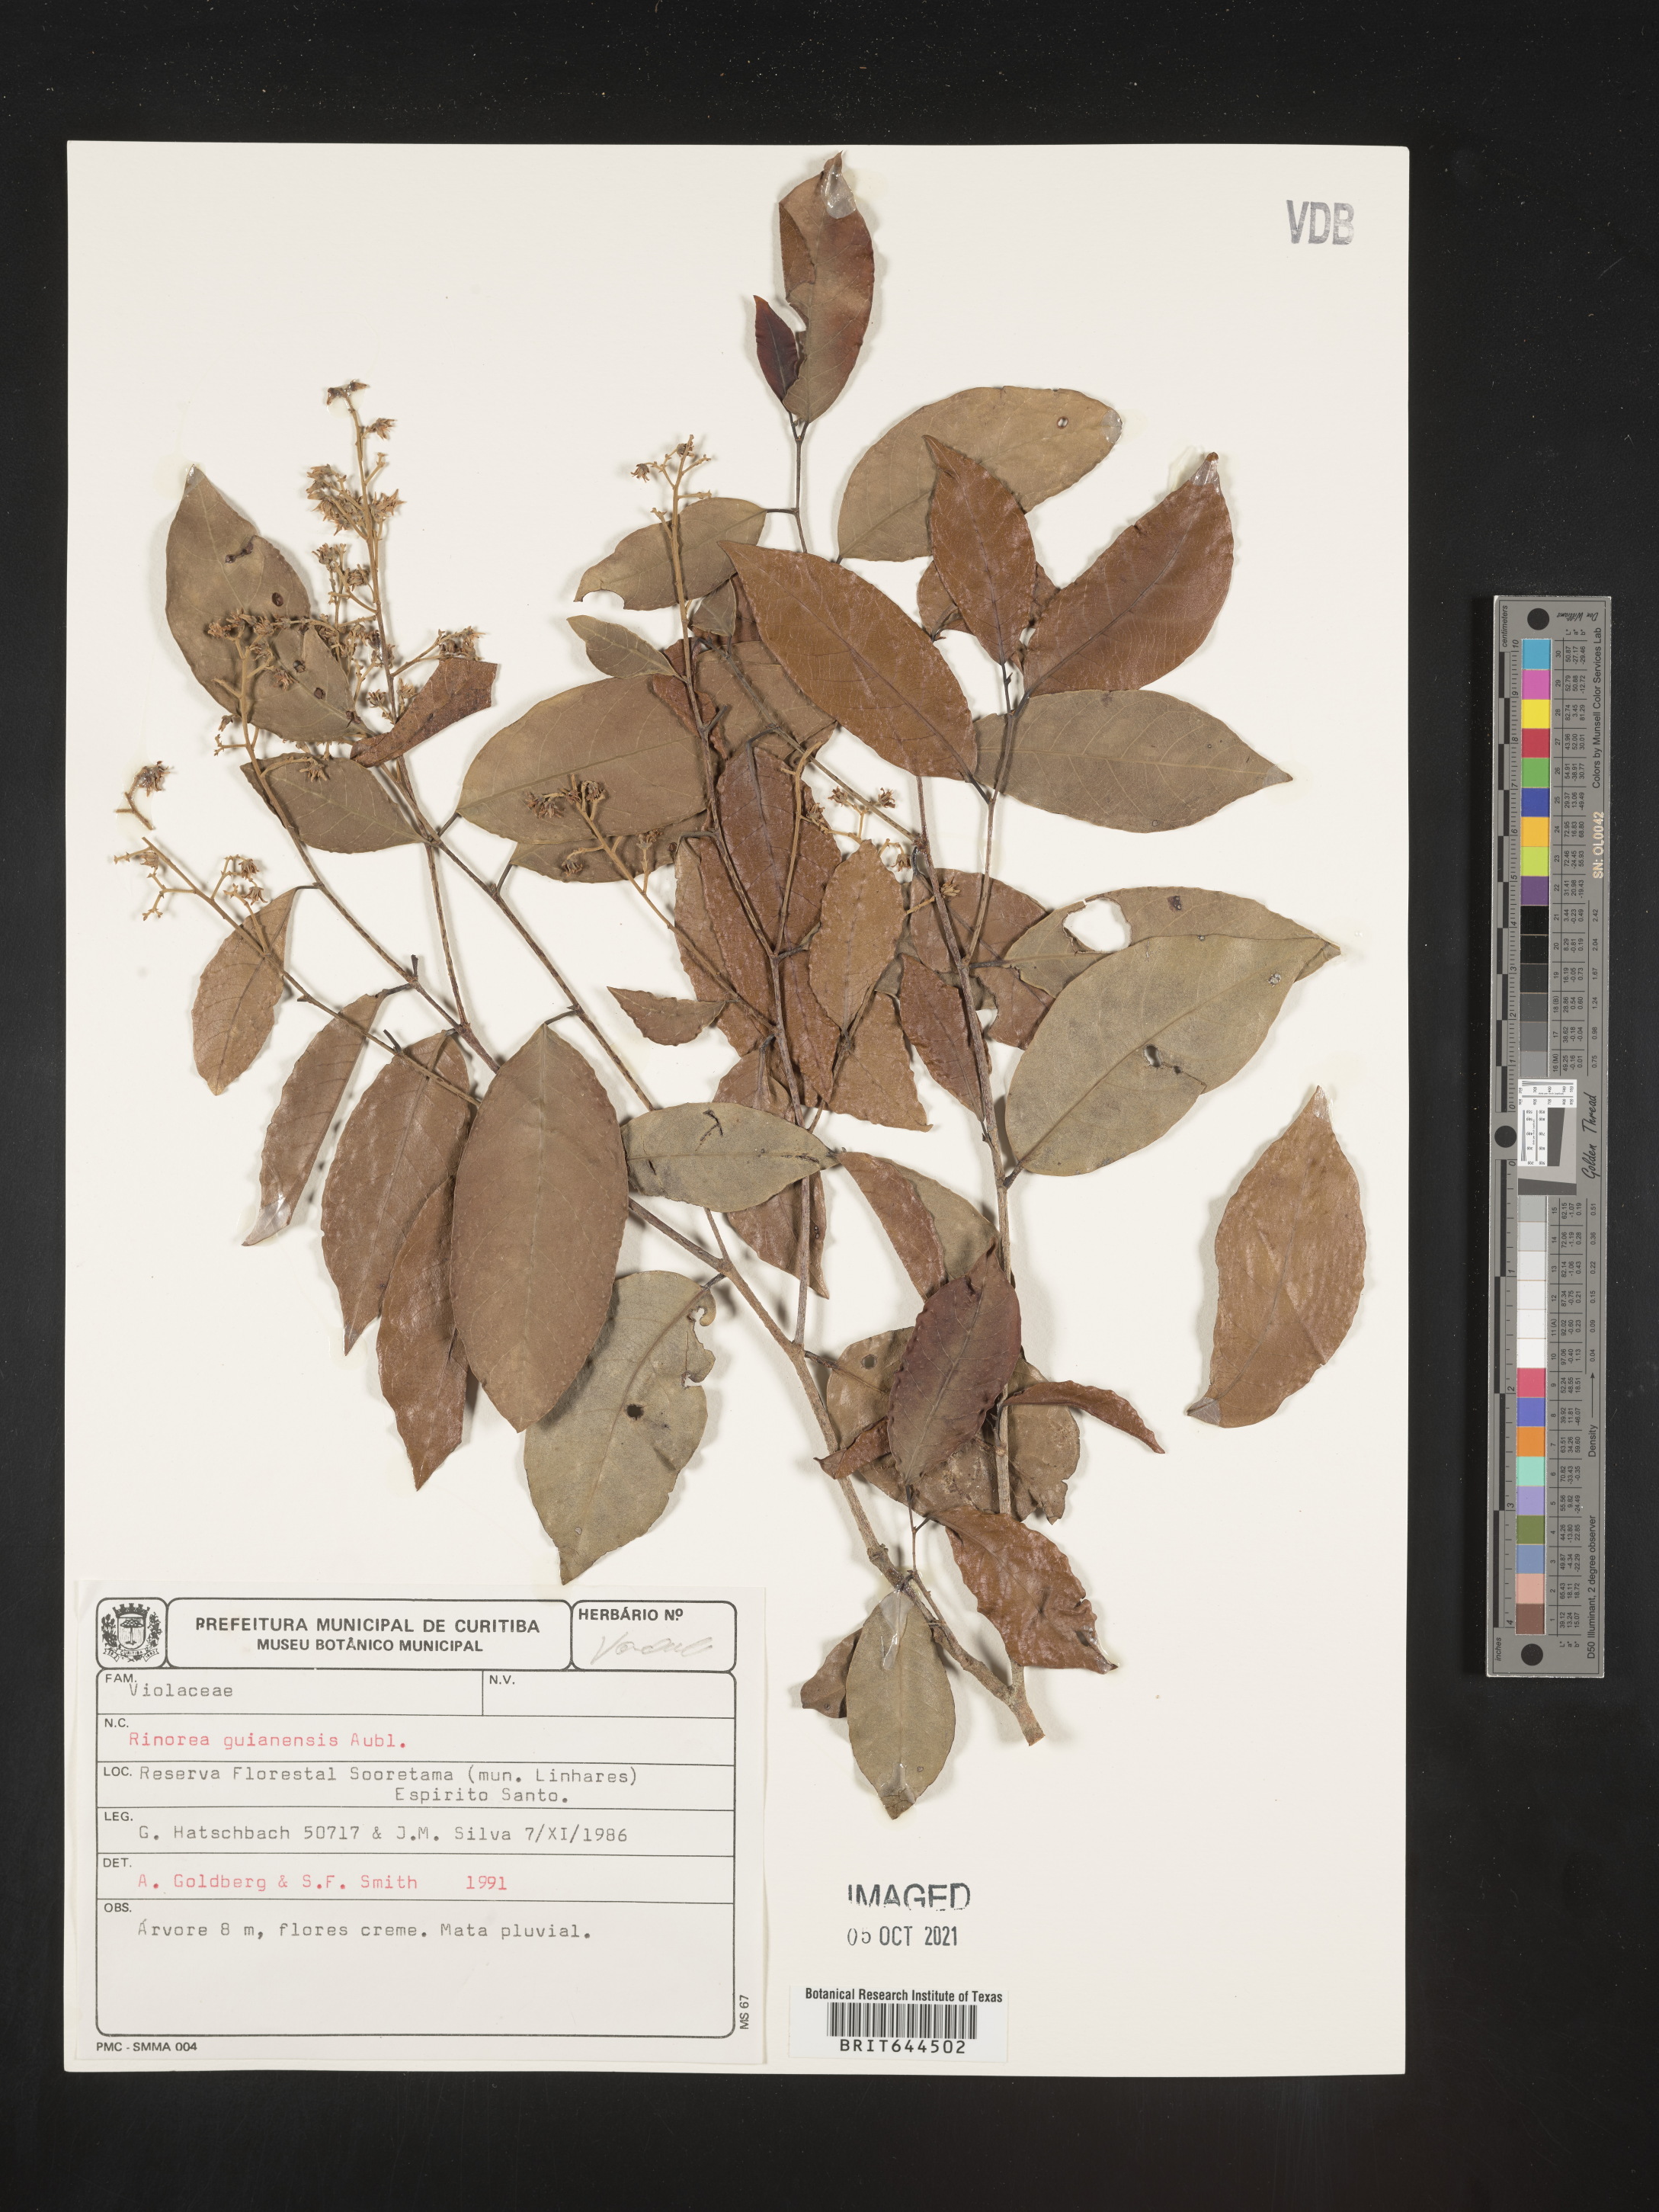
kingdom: Plantae
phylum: Tracheophyta
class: Magnoliopsida
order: Malpighiales
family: Violaceae
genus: Rinorea
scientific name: Rinorea
